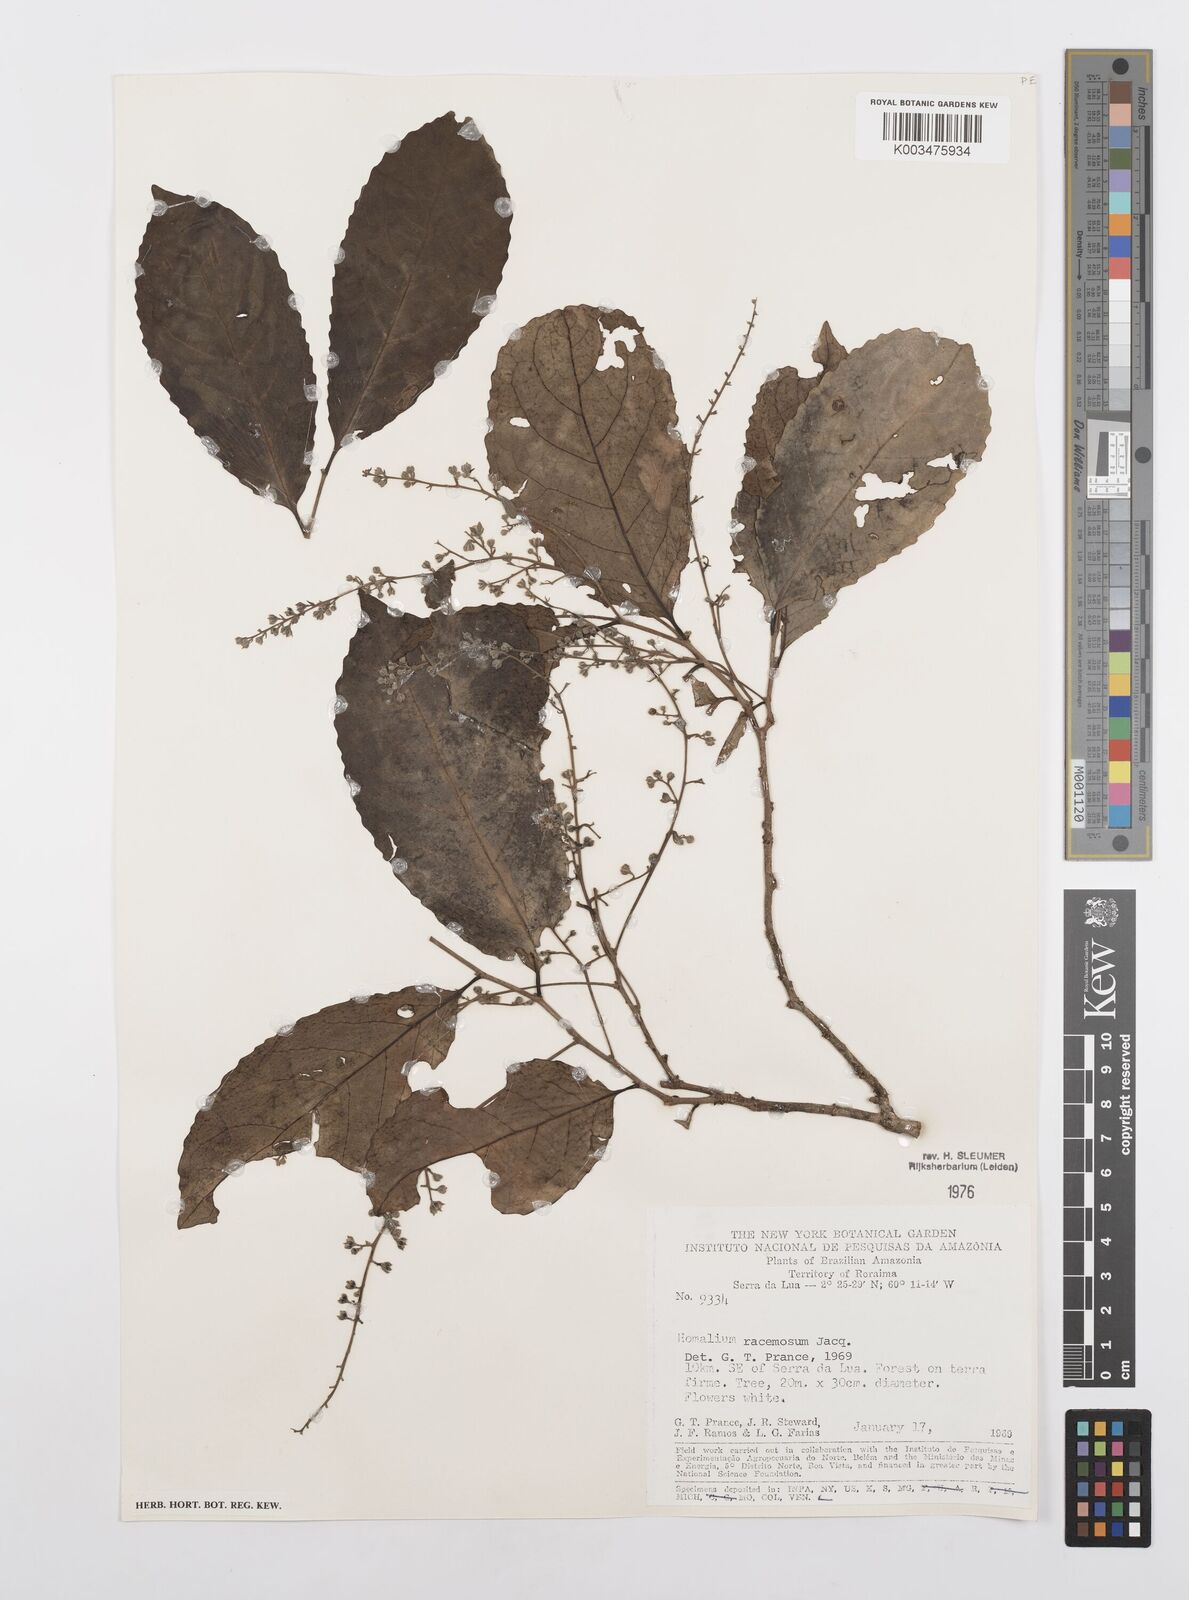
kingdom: Plantae
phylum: Tracheophyta
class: Magnoliopsida
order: Malpighiales
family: Salicaceae
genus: Homalium
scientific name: Homalium racemosum
